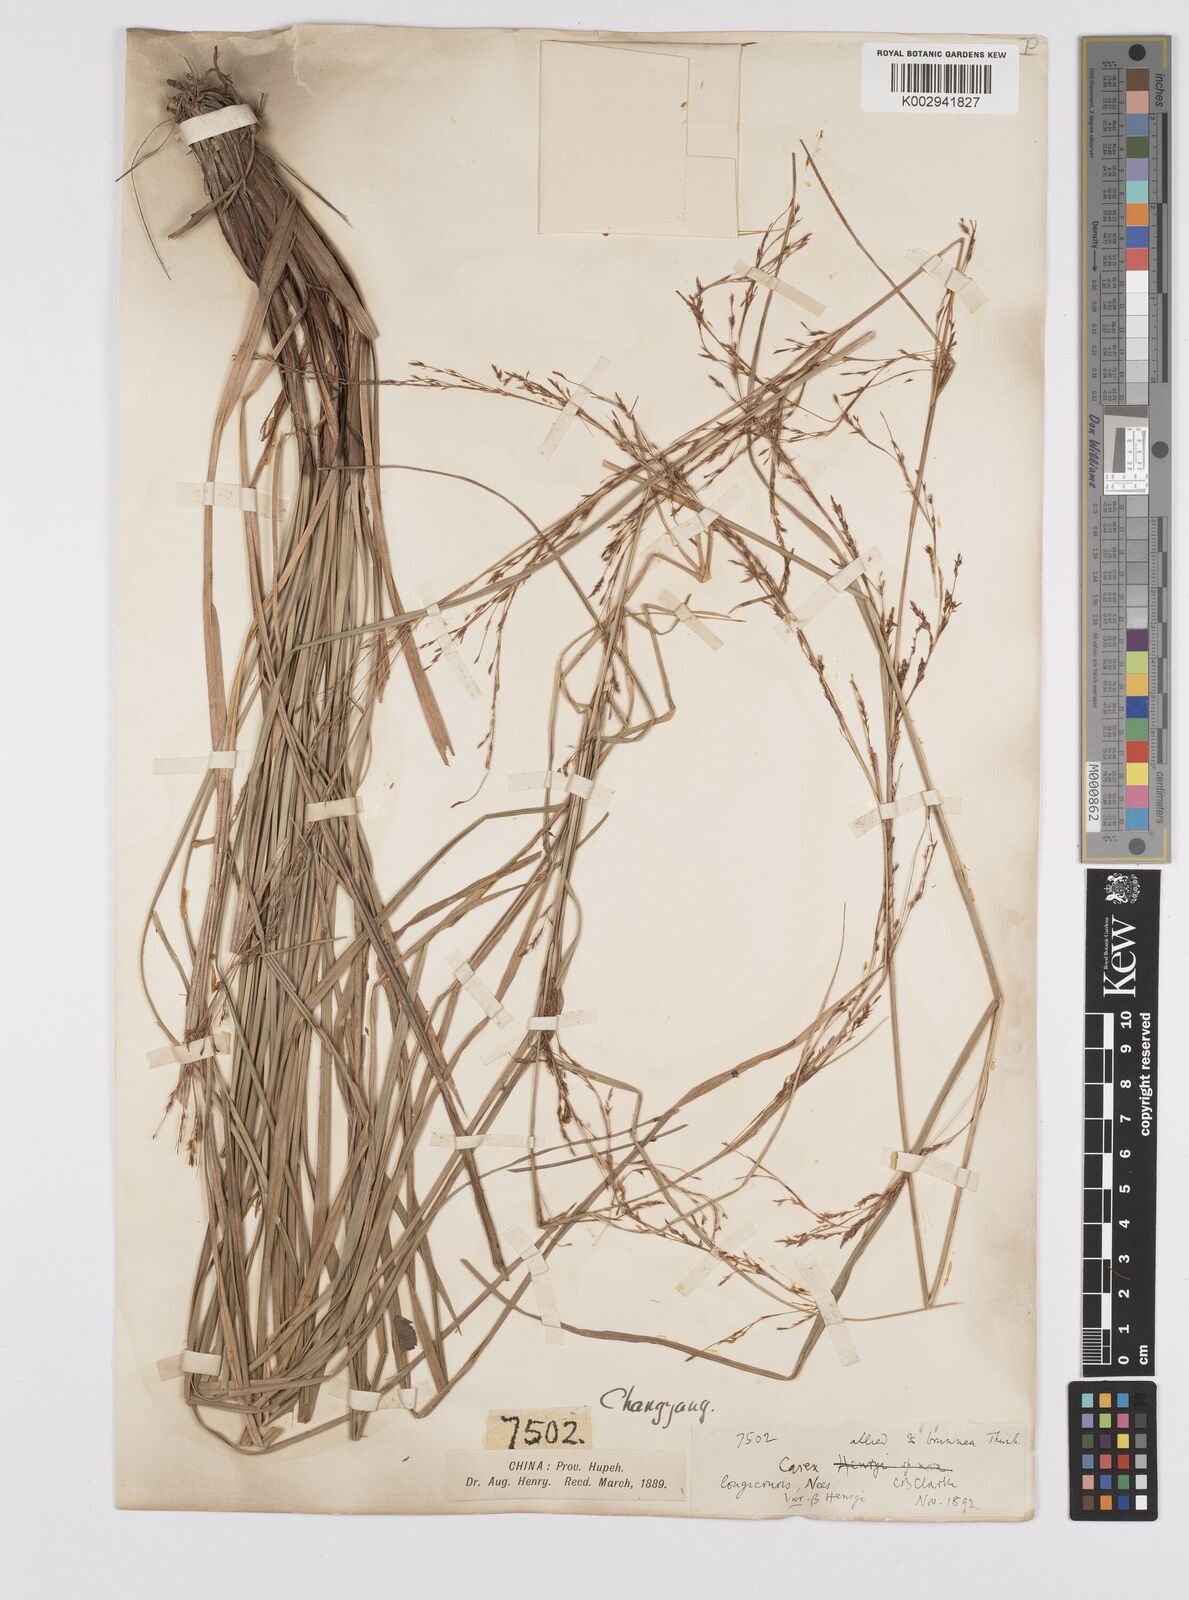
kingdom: Plantae
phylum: Tracheophyta
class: Liliopsida
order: Poales
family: Cyperaceae
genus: Carex
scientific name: Carex longicruris
